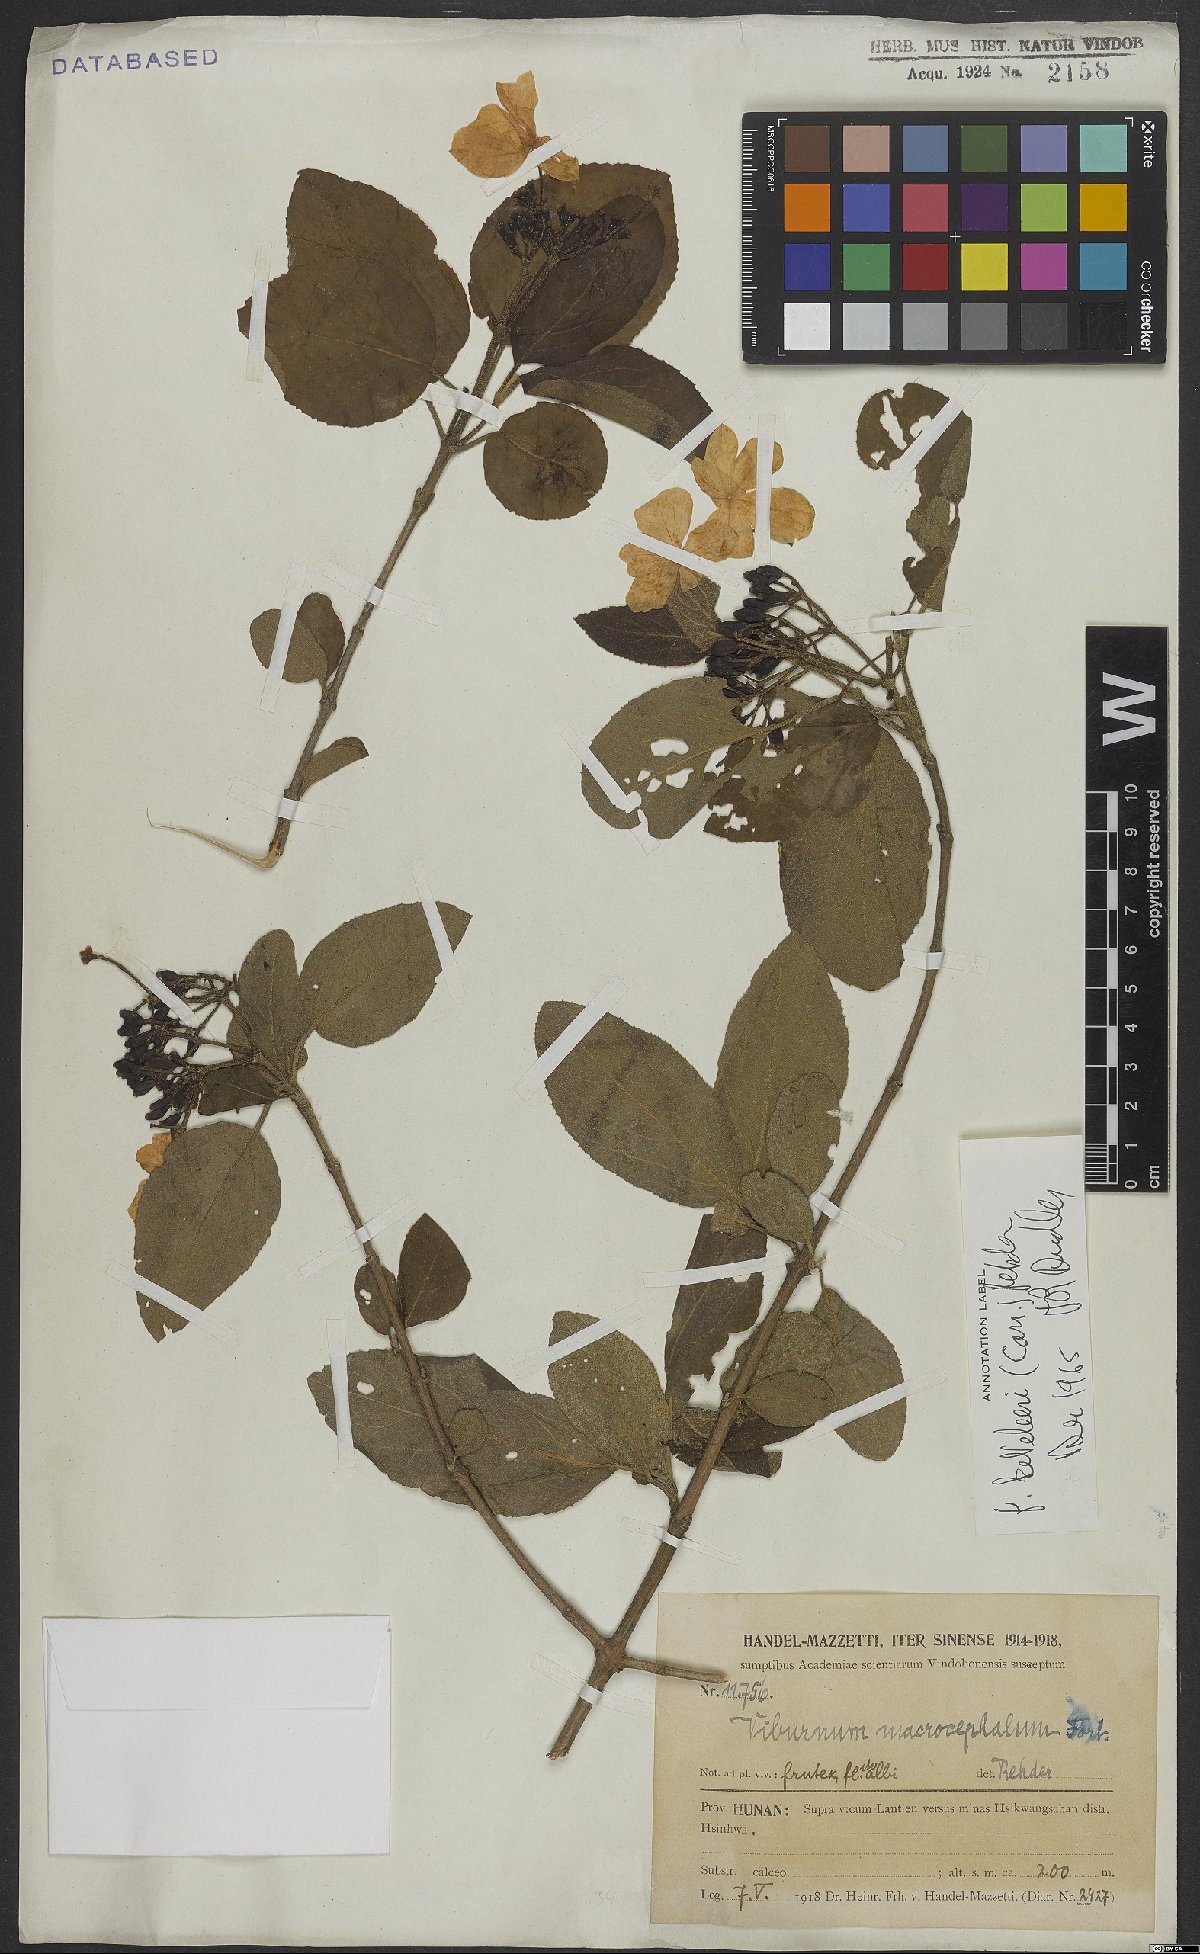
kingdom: Plantae
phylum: Tracheophyta
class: Magnoliopsida
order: Dipsacales
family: Viburnaceae
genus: Viburnum
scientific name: Viburnum macrocephalum
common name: Chinese snowball viburnum
